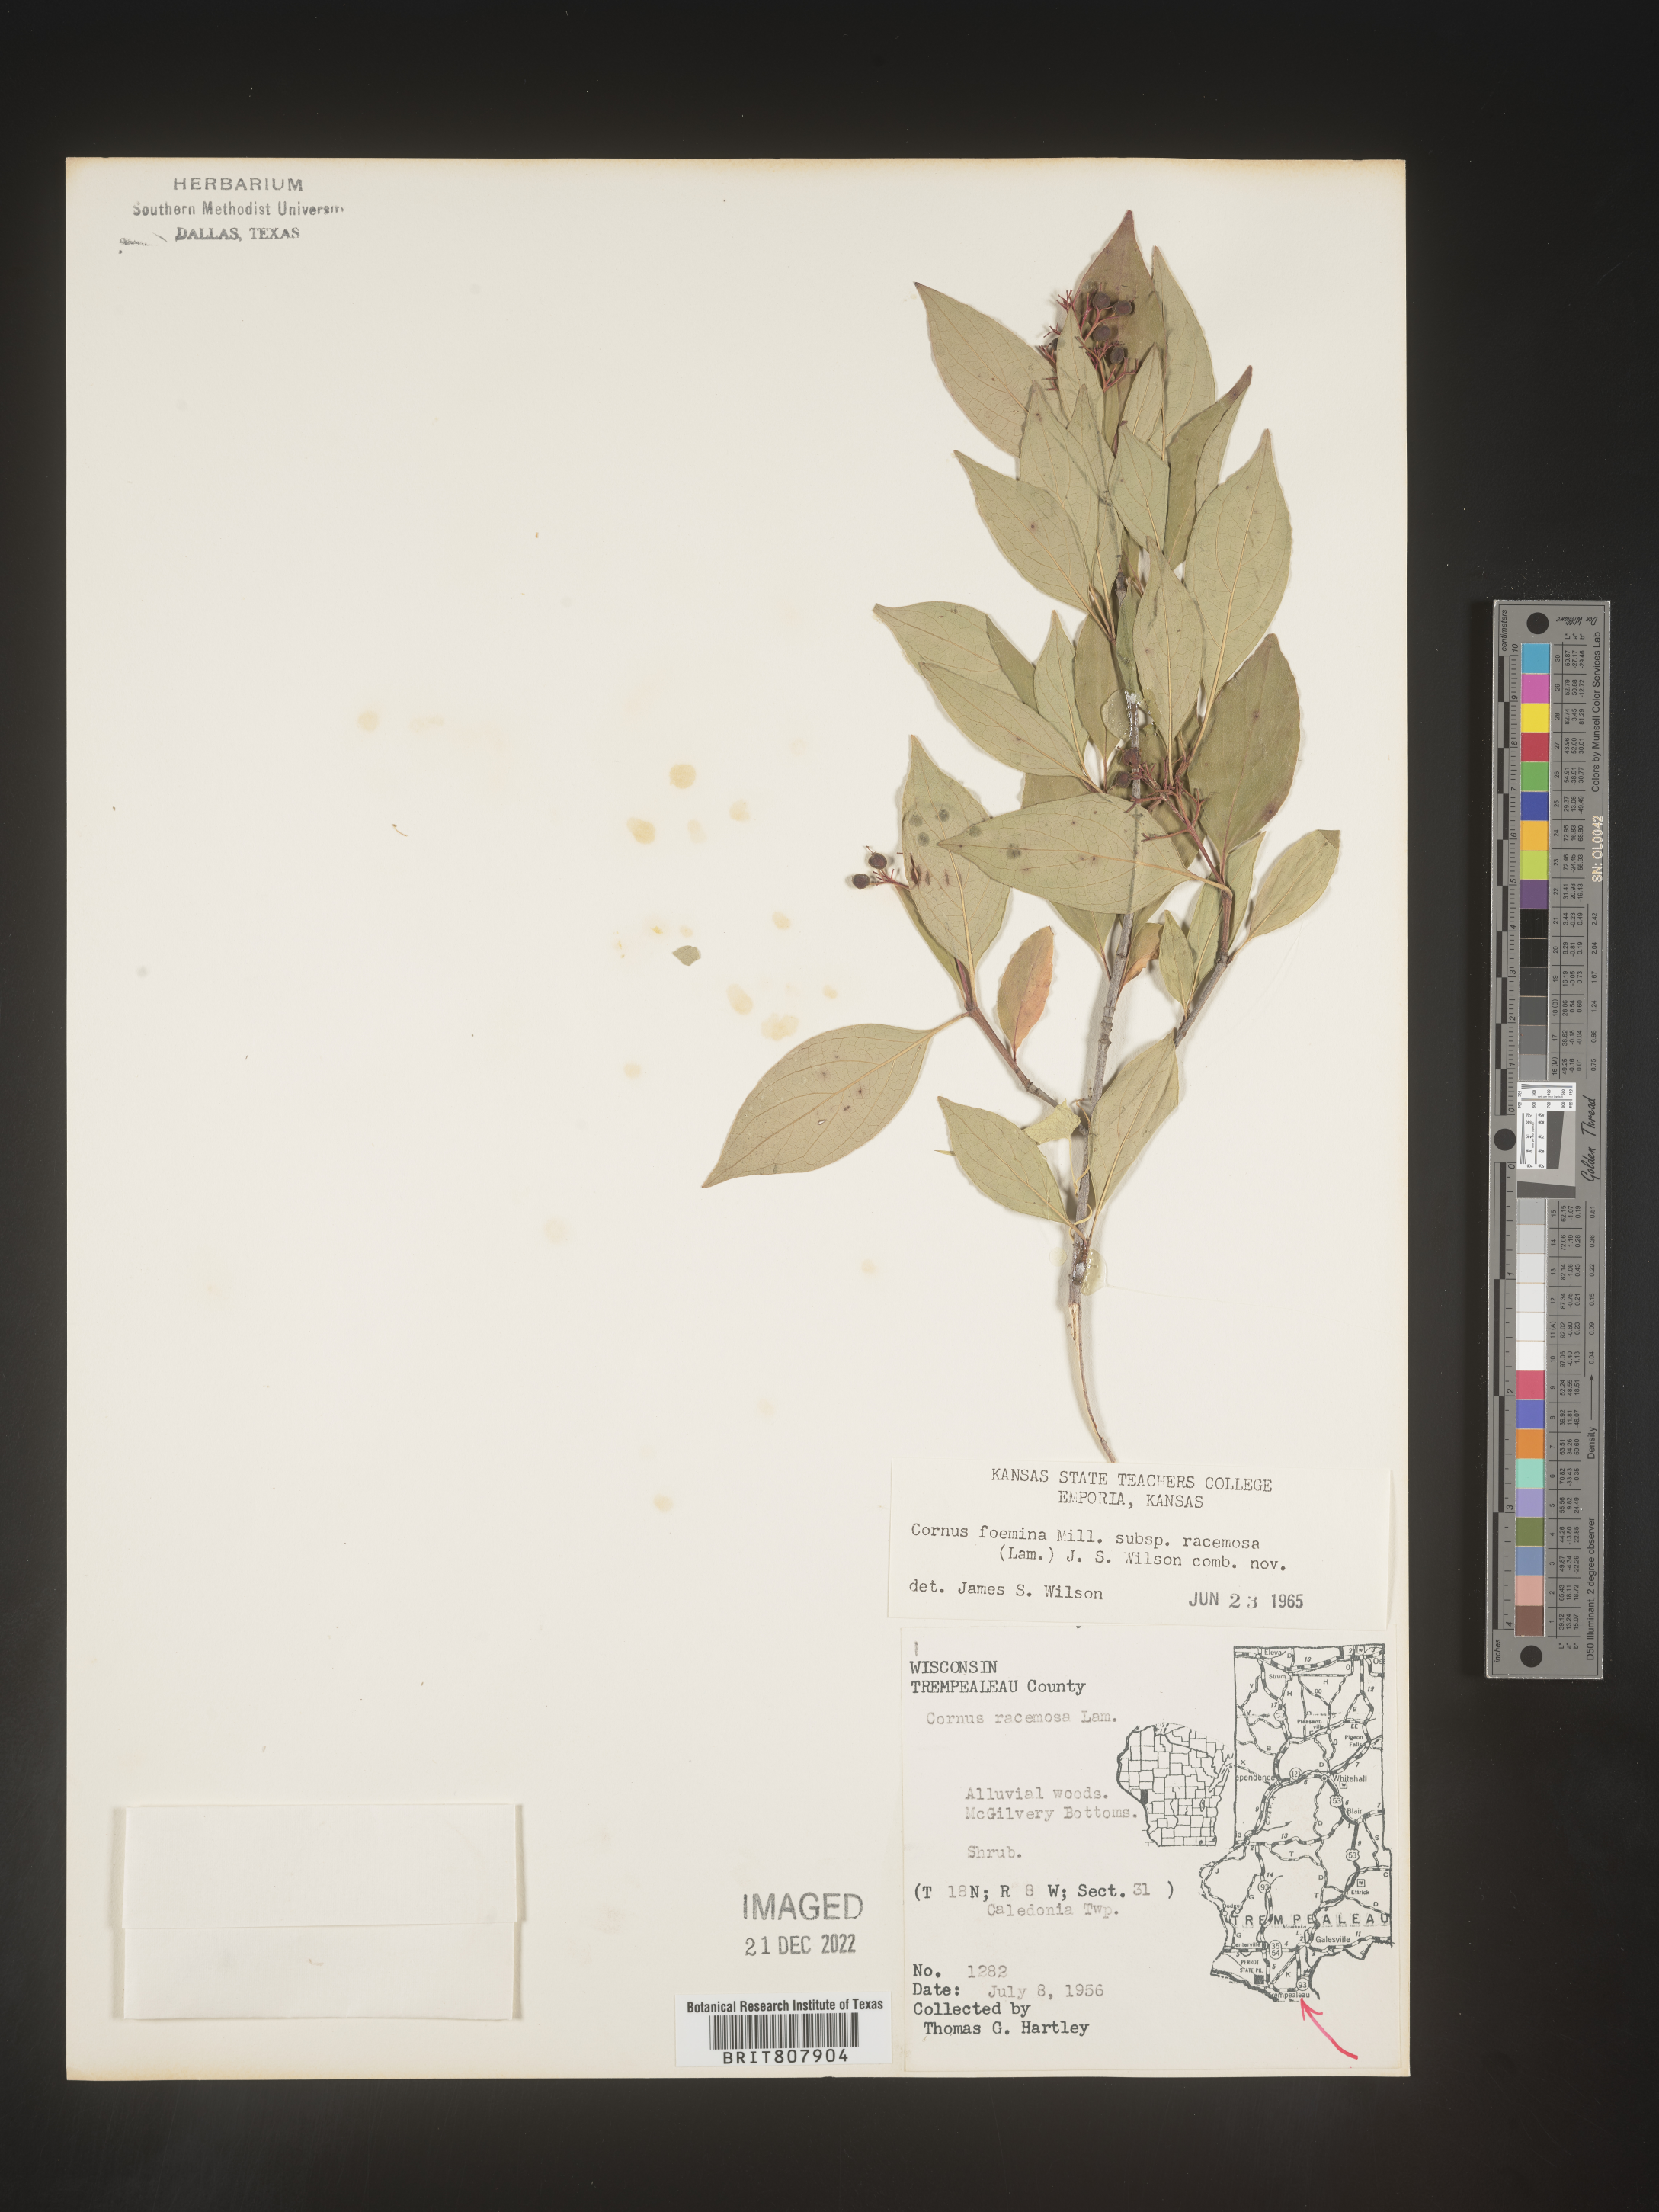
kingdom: Plantae
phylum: Tracheophyta
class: Magnoliopsida
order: Cornales
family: Cornaceae
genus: Cornus
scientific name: Cornus racemosa
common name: Panicled dogwood
